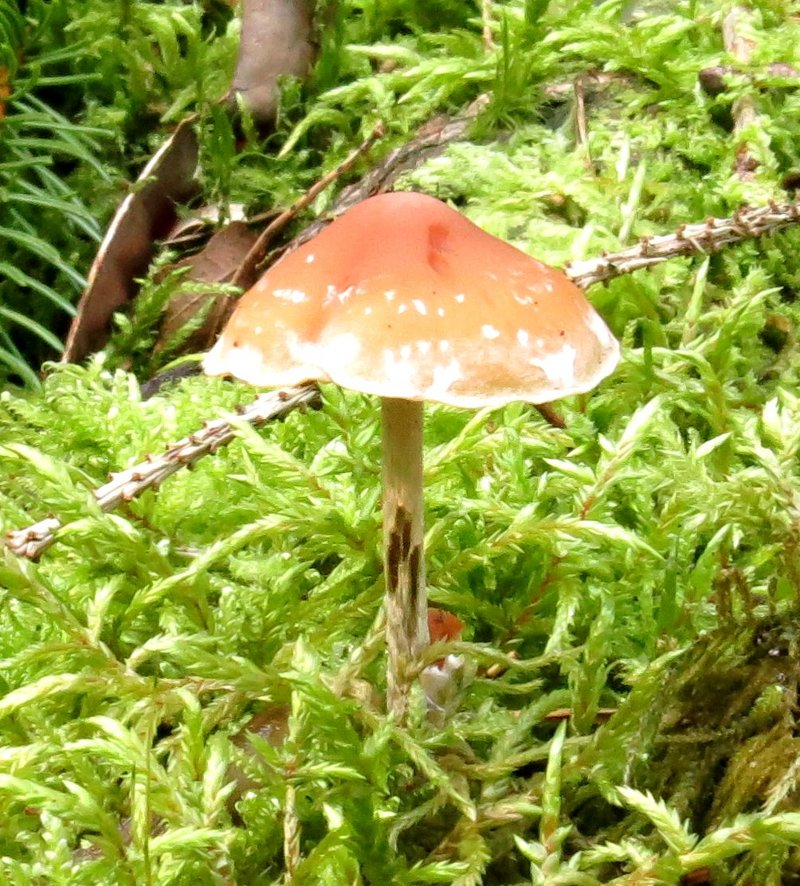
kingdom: Fungi
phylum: Basidiomycota
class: Agaricomycetes
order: Agaricales
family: Strophariaceae
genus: Hypholoma
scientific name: Hypholoma marginatum
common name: enlig svovlhat
